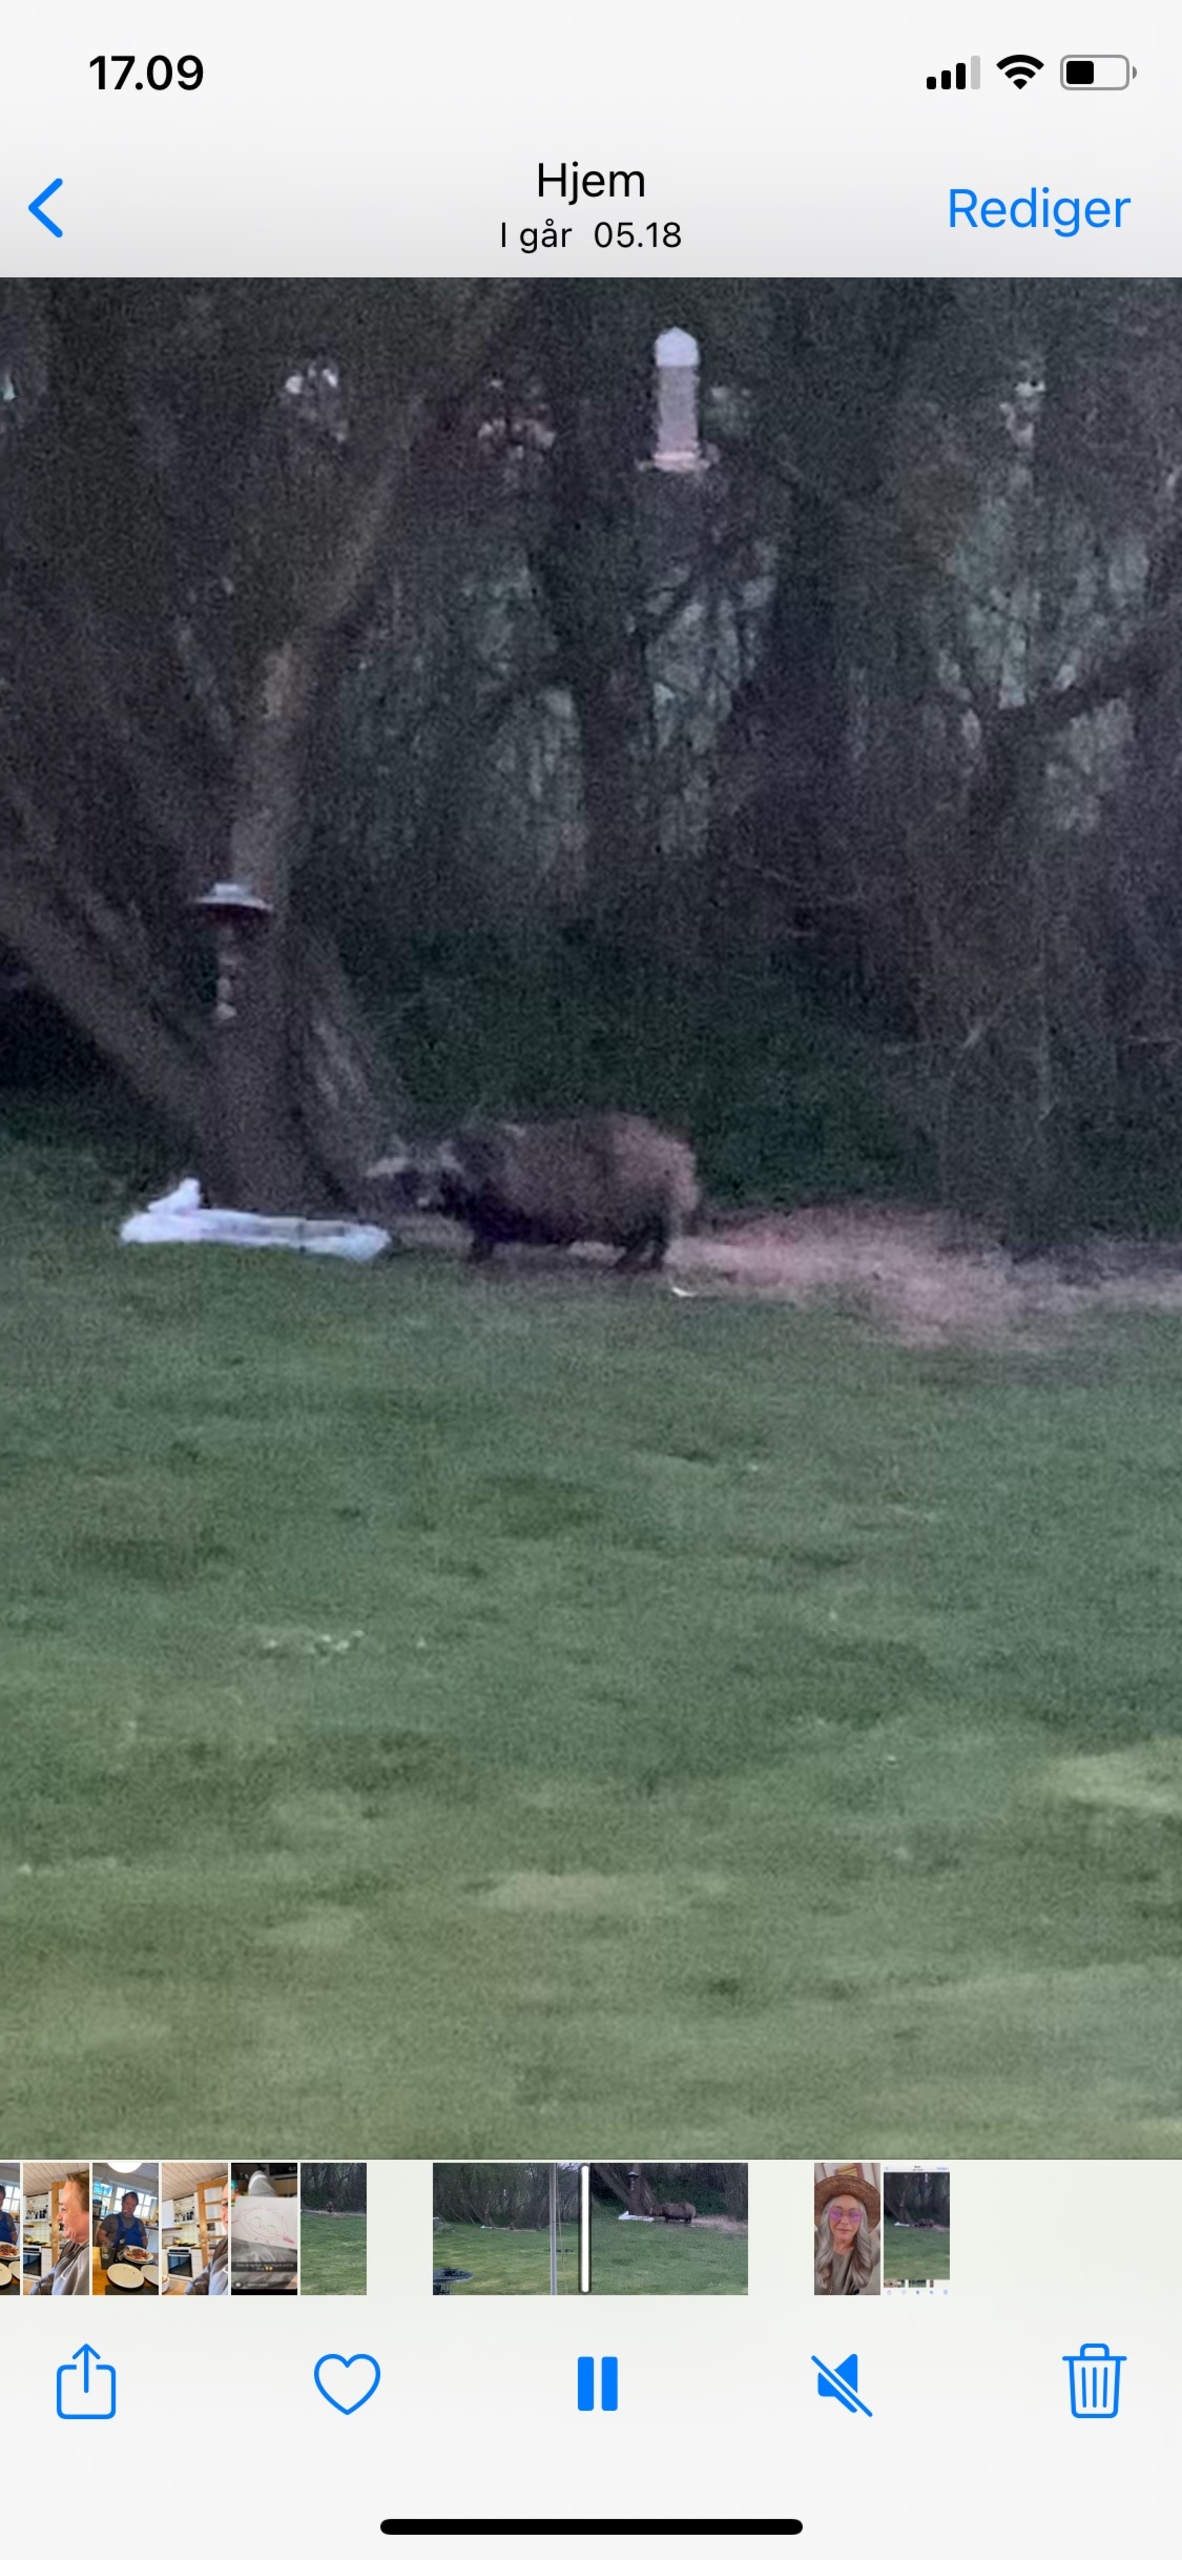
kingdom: Animalia
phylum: Chordata
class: Mammalia
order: Carnivora
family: Canidae
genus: Nyctereutes
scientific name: Nyctereutes procyonoides
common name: Mårhund
